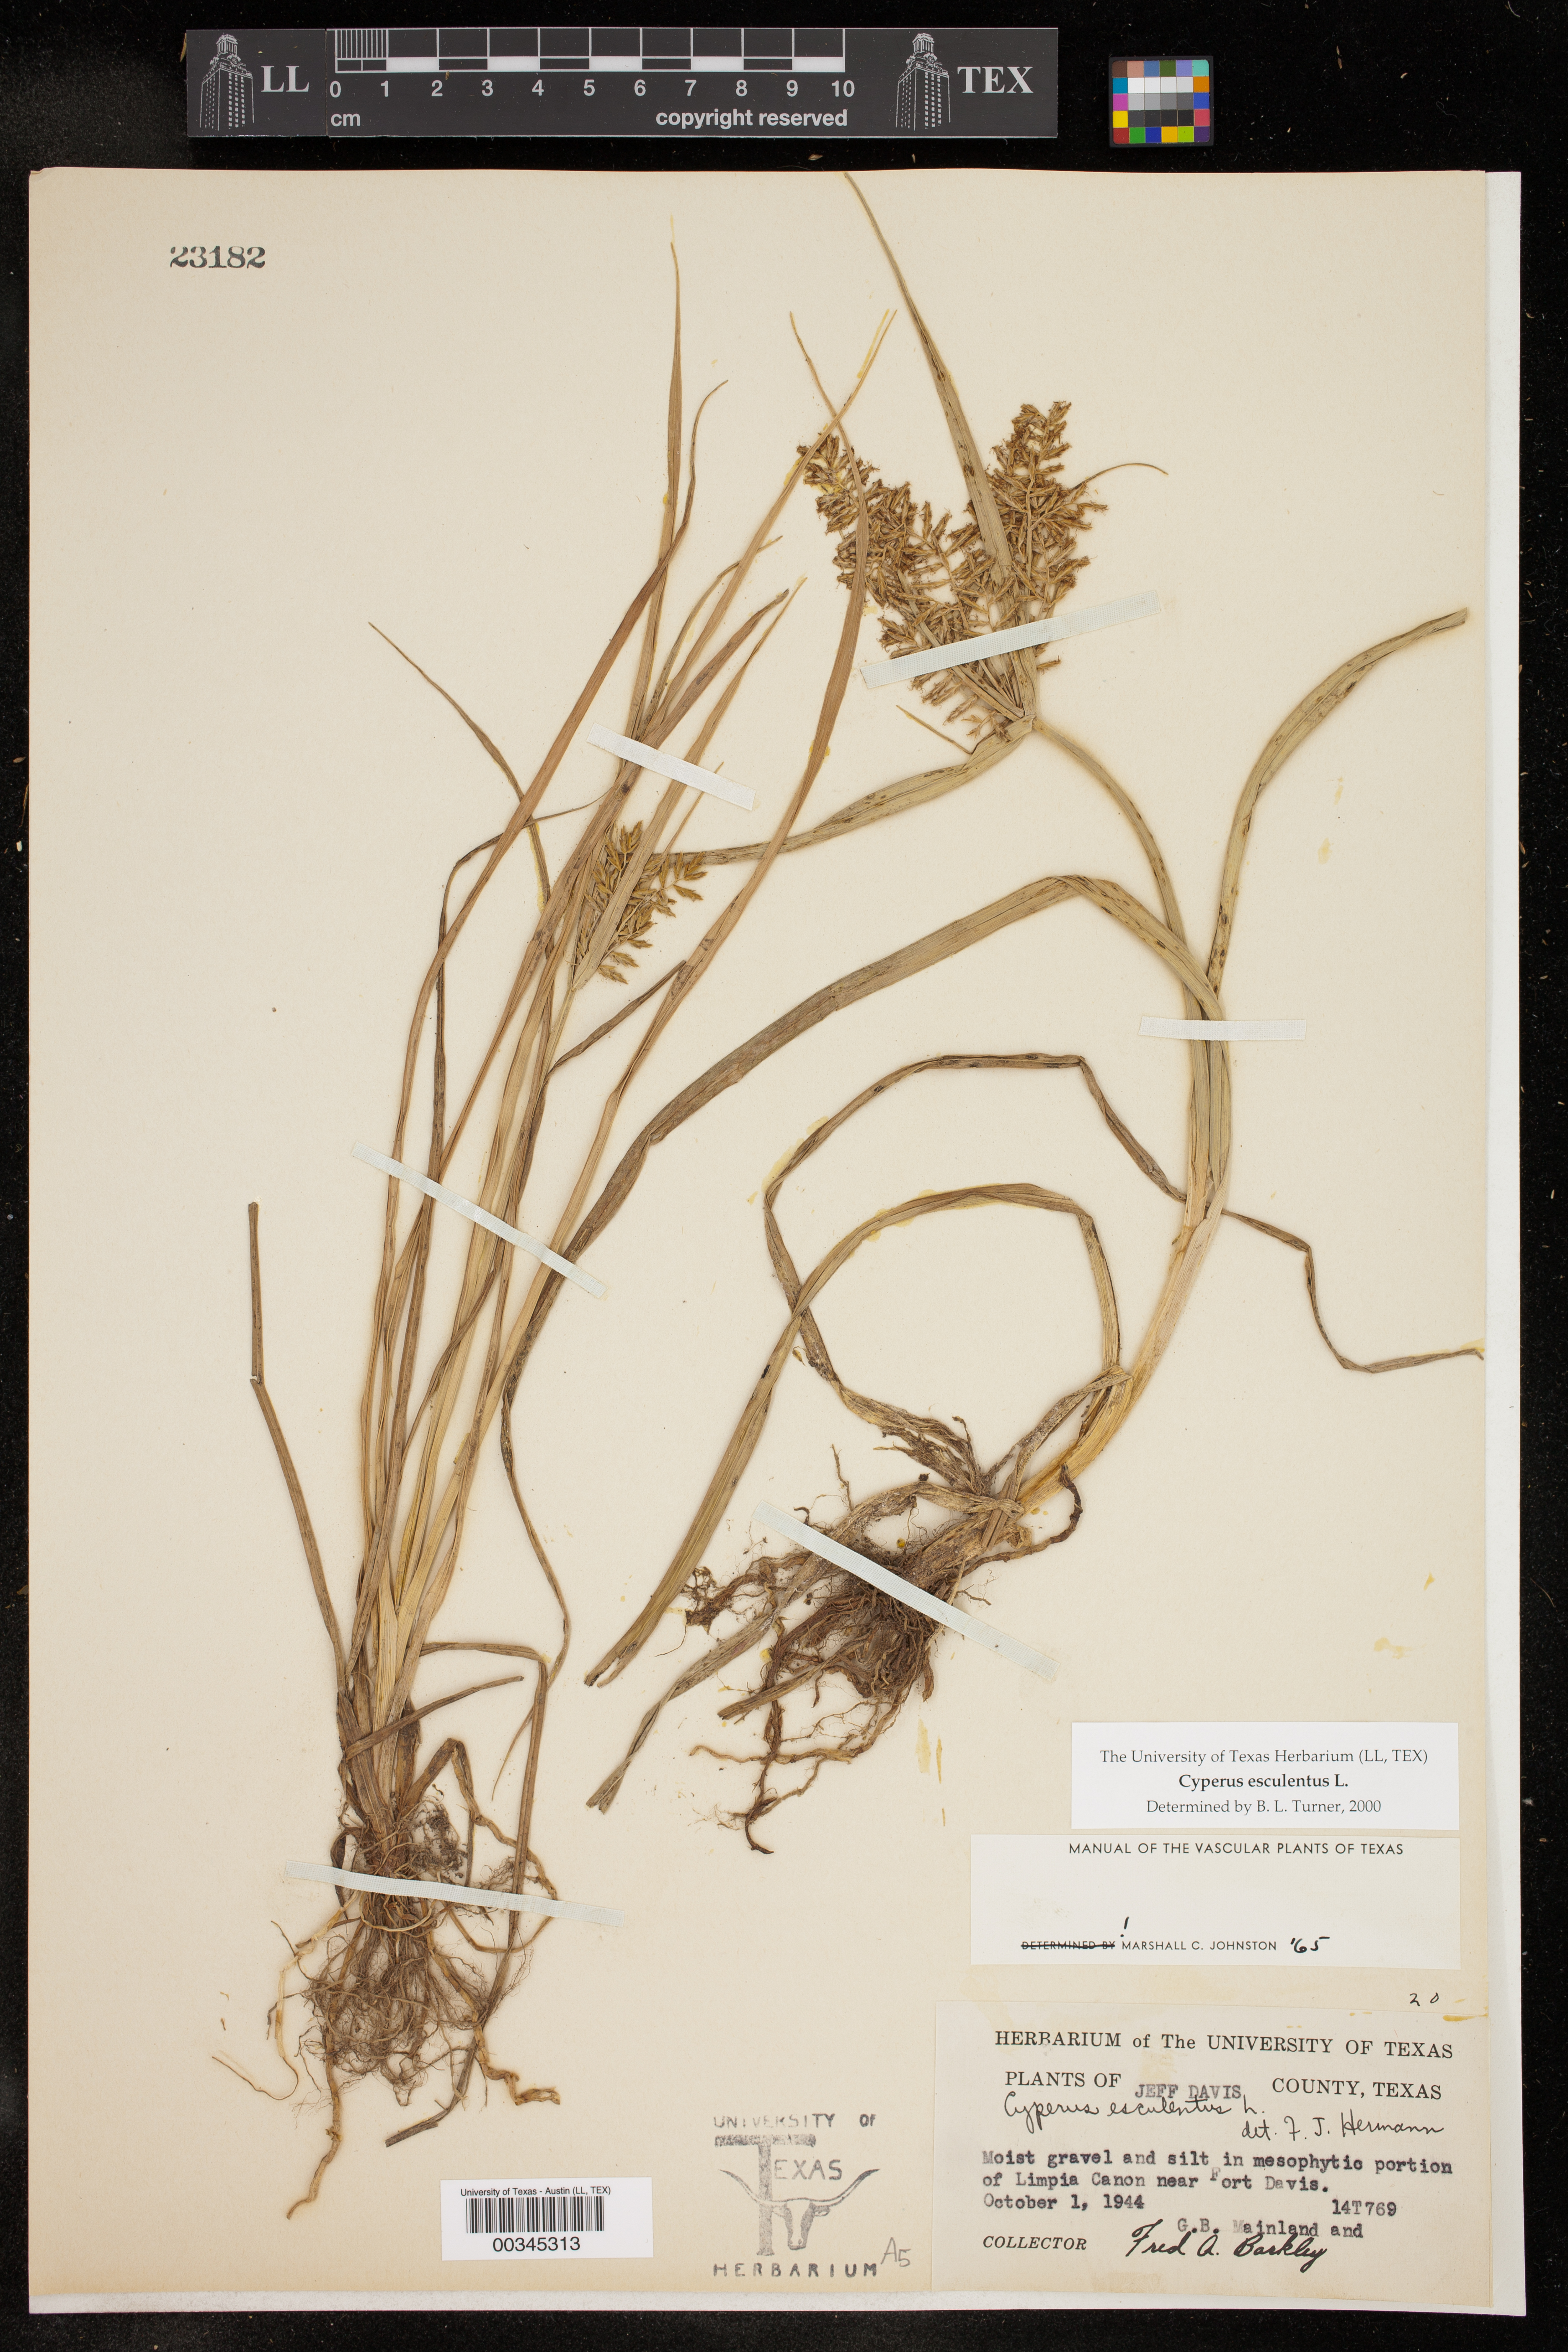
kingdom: Plantae
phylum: Tracheophyta
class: Liliopsida
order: Poales
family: Cyperaceae
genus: Cyperus
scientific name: Cyperus esculentus
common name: Yellow nutsedge
